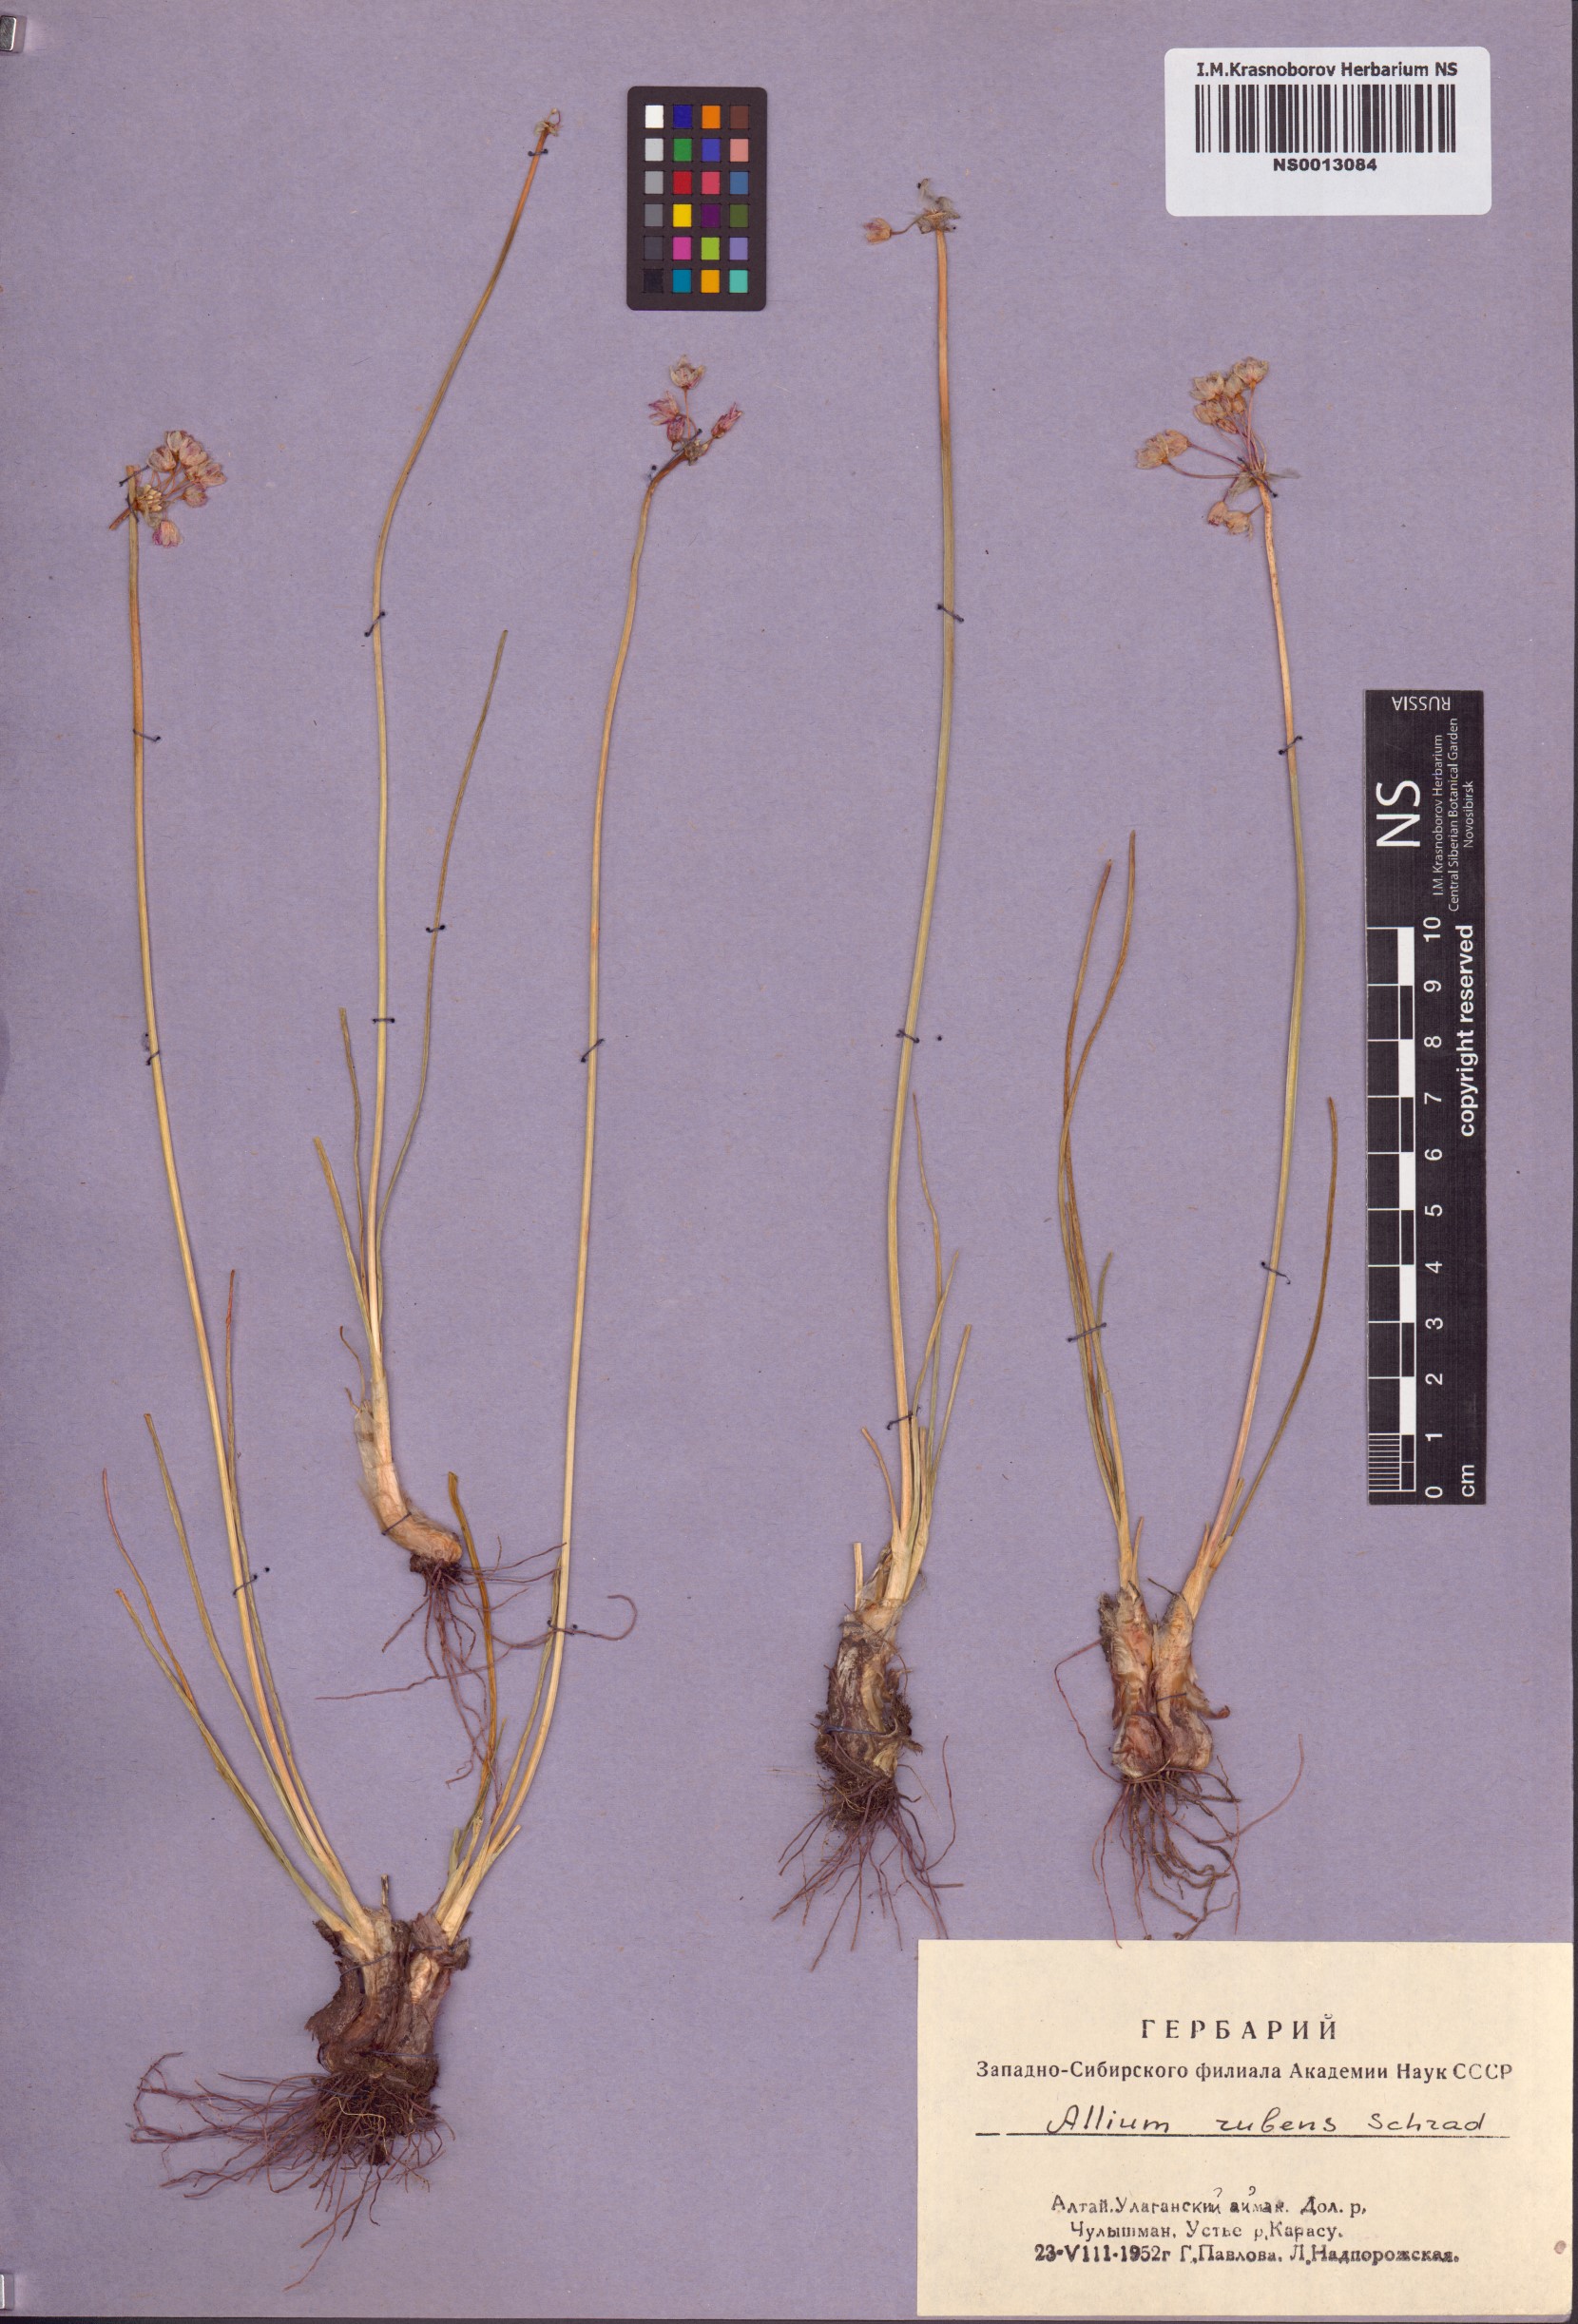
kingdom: Plantae
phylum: Tracheophyta
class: Liliopsida
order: Asparagales
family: Amaryllidaceae
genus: Allium
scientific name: Allium rubens
